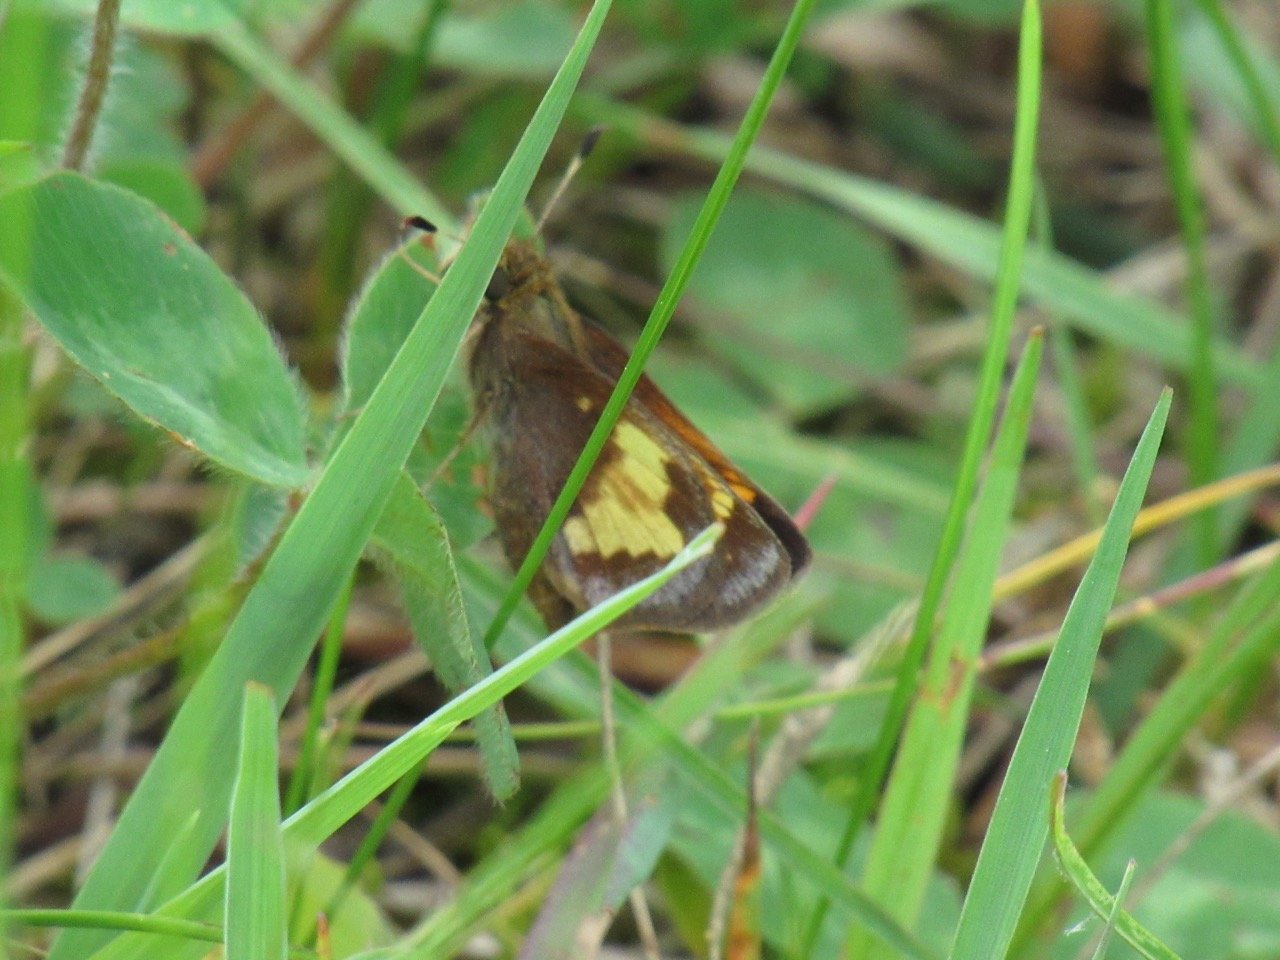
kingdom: Animalia
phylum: Arthropoda
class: Insecta
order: Lepidoptera
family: Hesperiidae
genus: Lon
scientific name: Lon hobomok
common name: Hobomok Skipper
